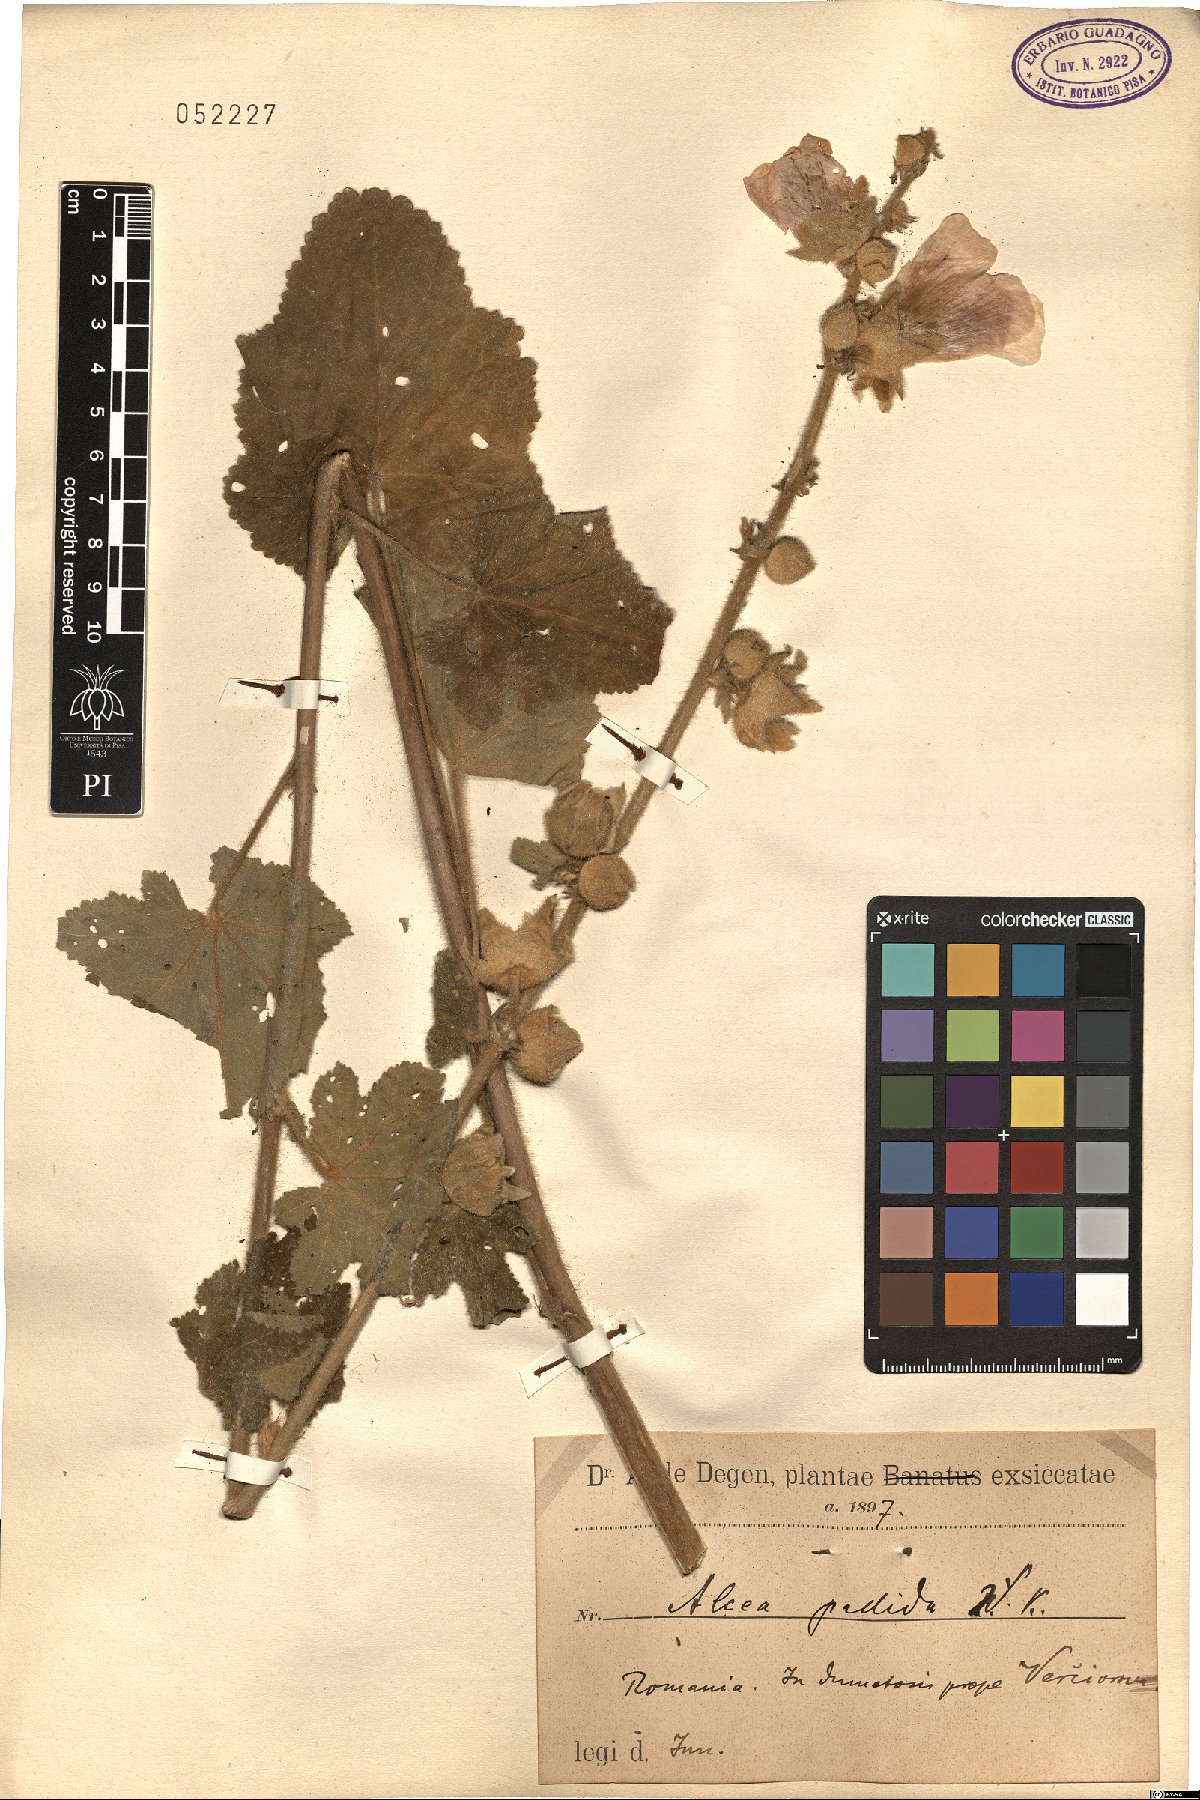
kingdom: Plantae
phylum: Tracheophyta
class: Magnoliopsida
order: Malvales
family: Malvaceae
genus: Alcea
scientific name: Alcea biennis
